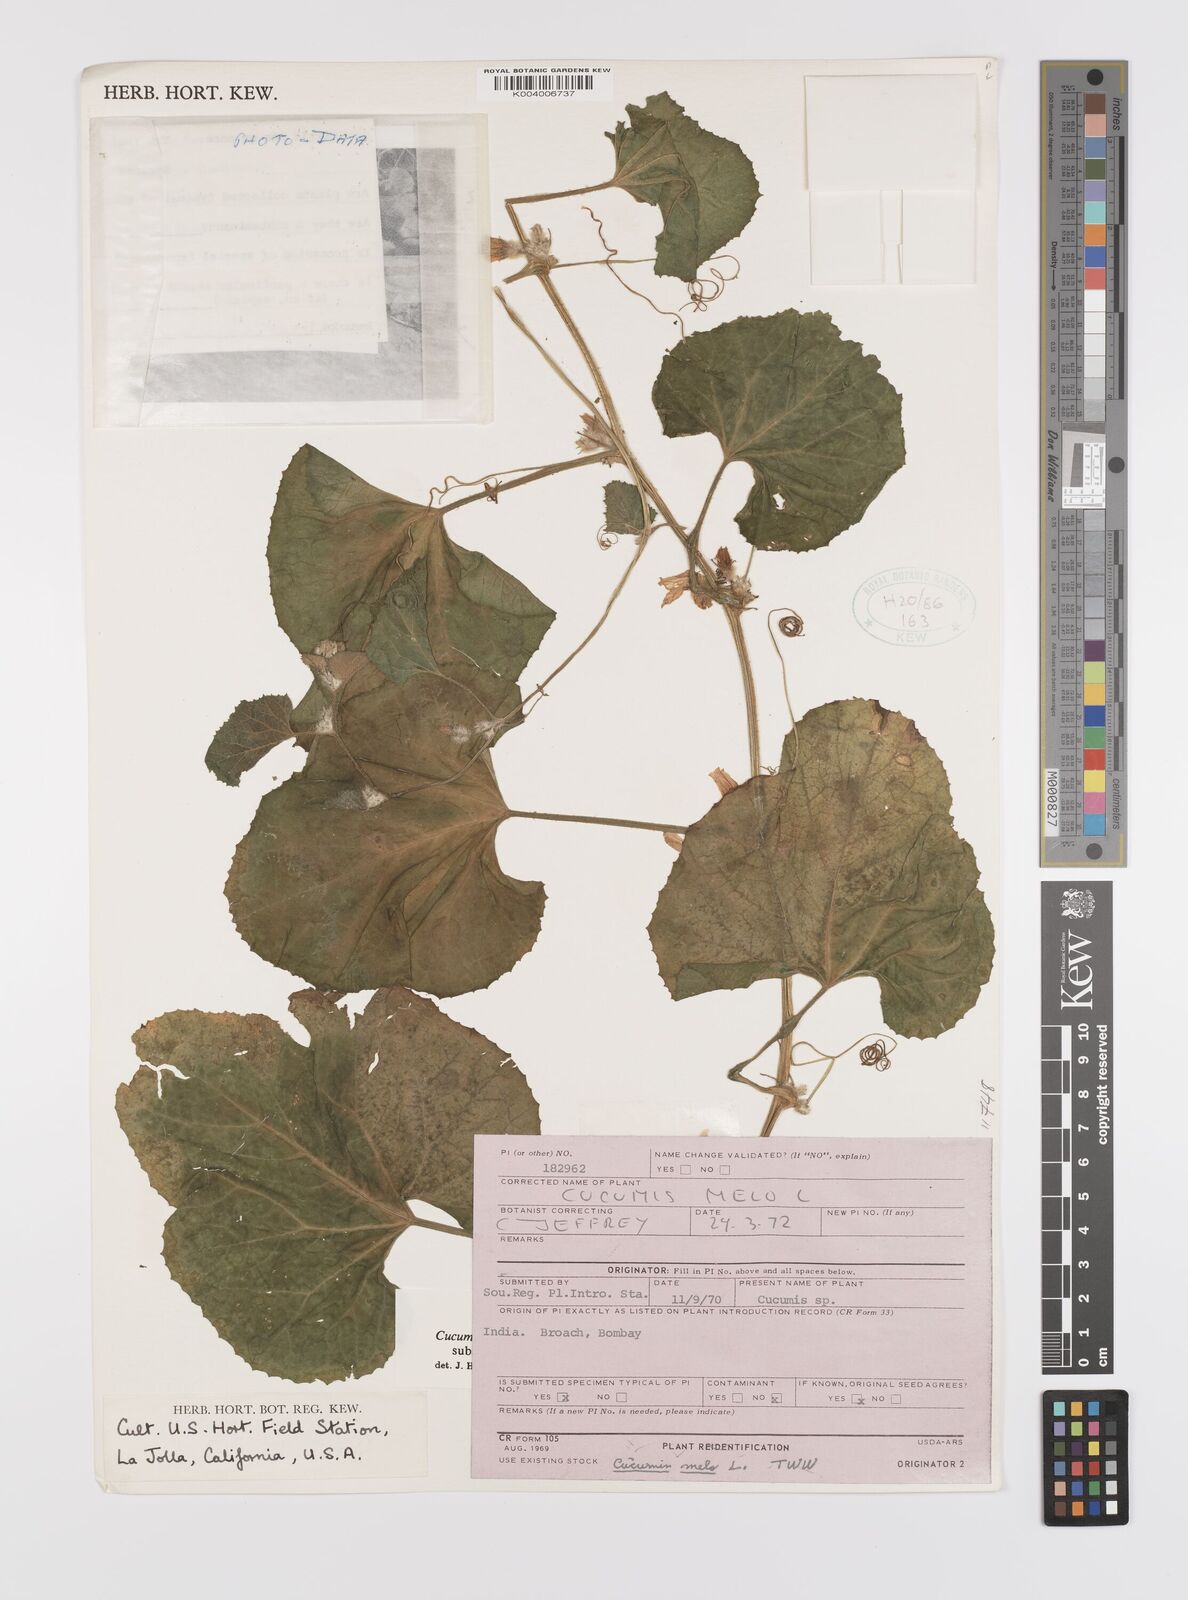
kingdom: Plantae
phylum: Tracheophyta
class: Magnoliopsida
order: Cucurbitales
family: Cucurbitaceae
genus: Cucumis
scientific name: Cucumis melo
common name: Melon
